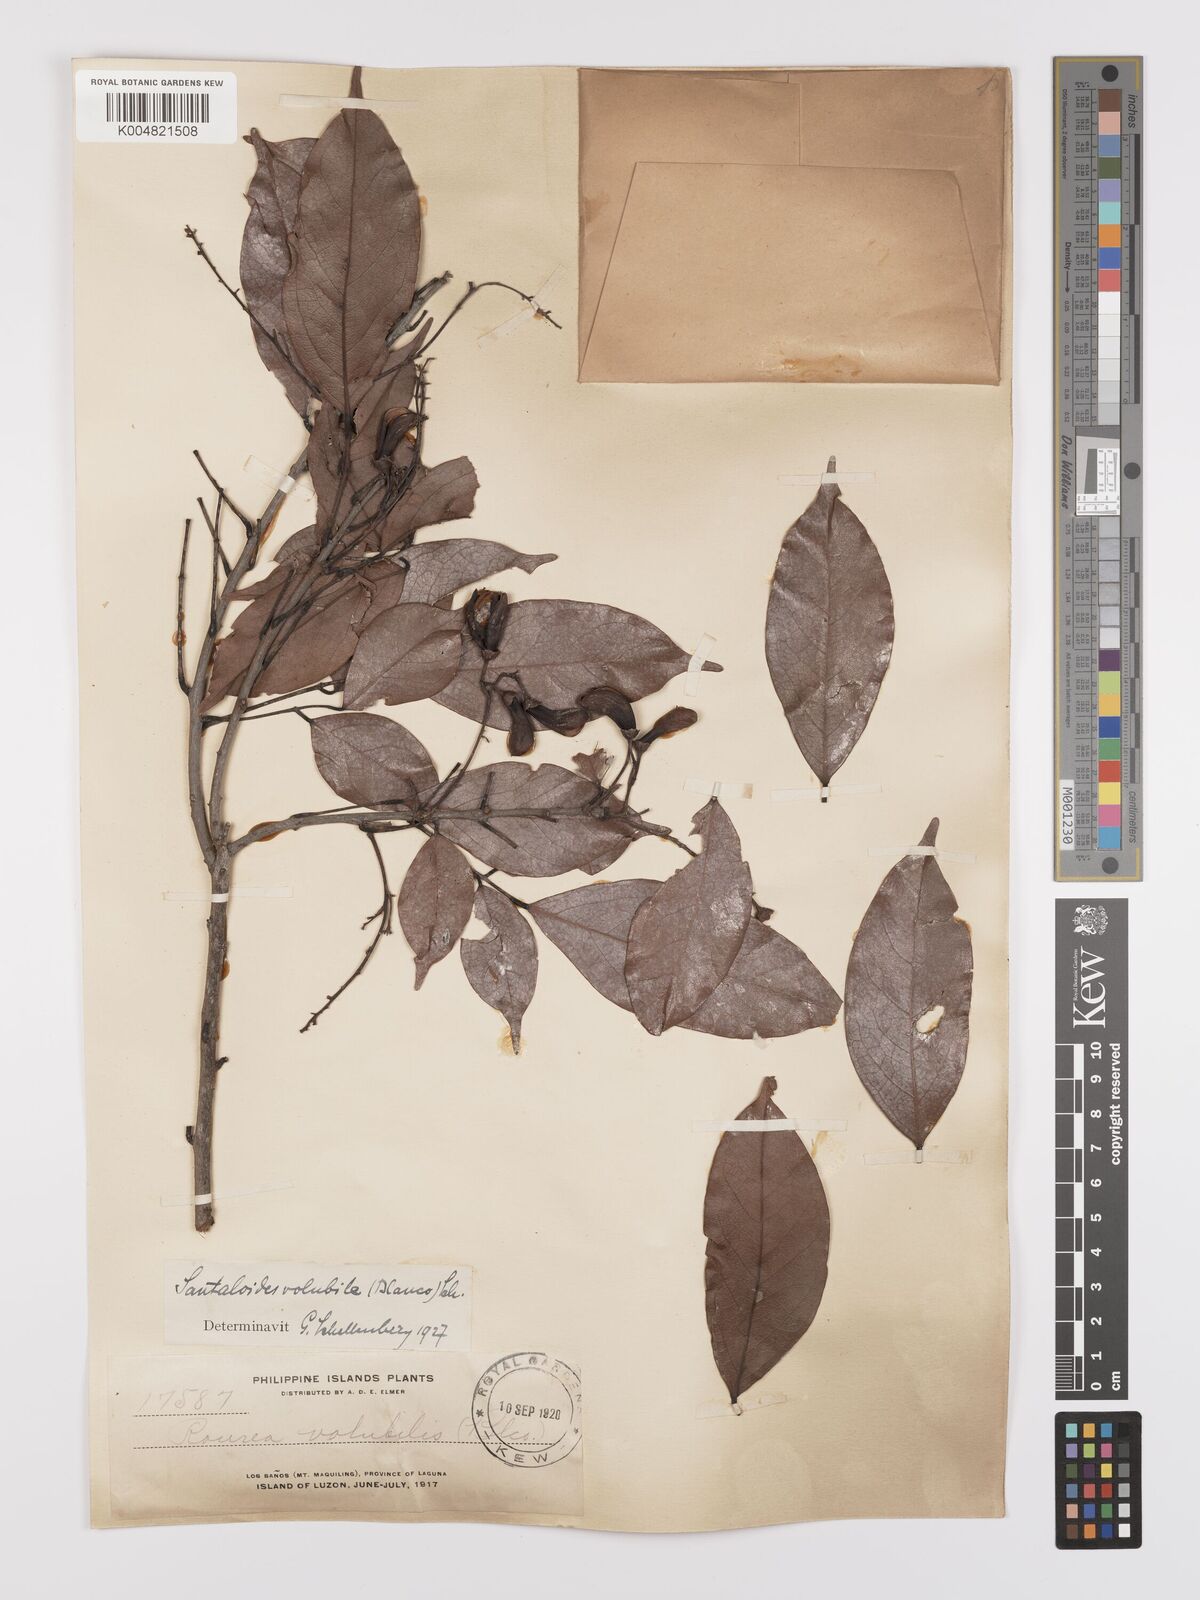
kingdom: Plantae
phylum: Tracheophyta
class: Magnoliopsida
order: Oxalidales
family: Connaraceae
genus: Rourea
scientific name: Rourea minor
